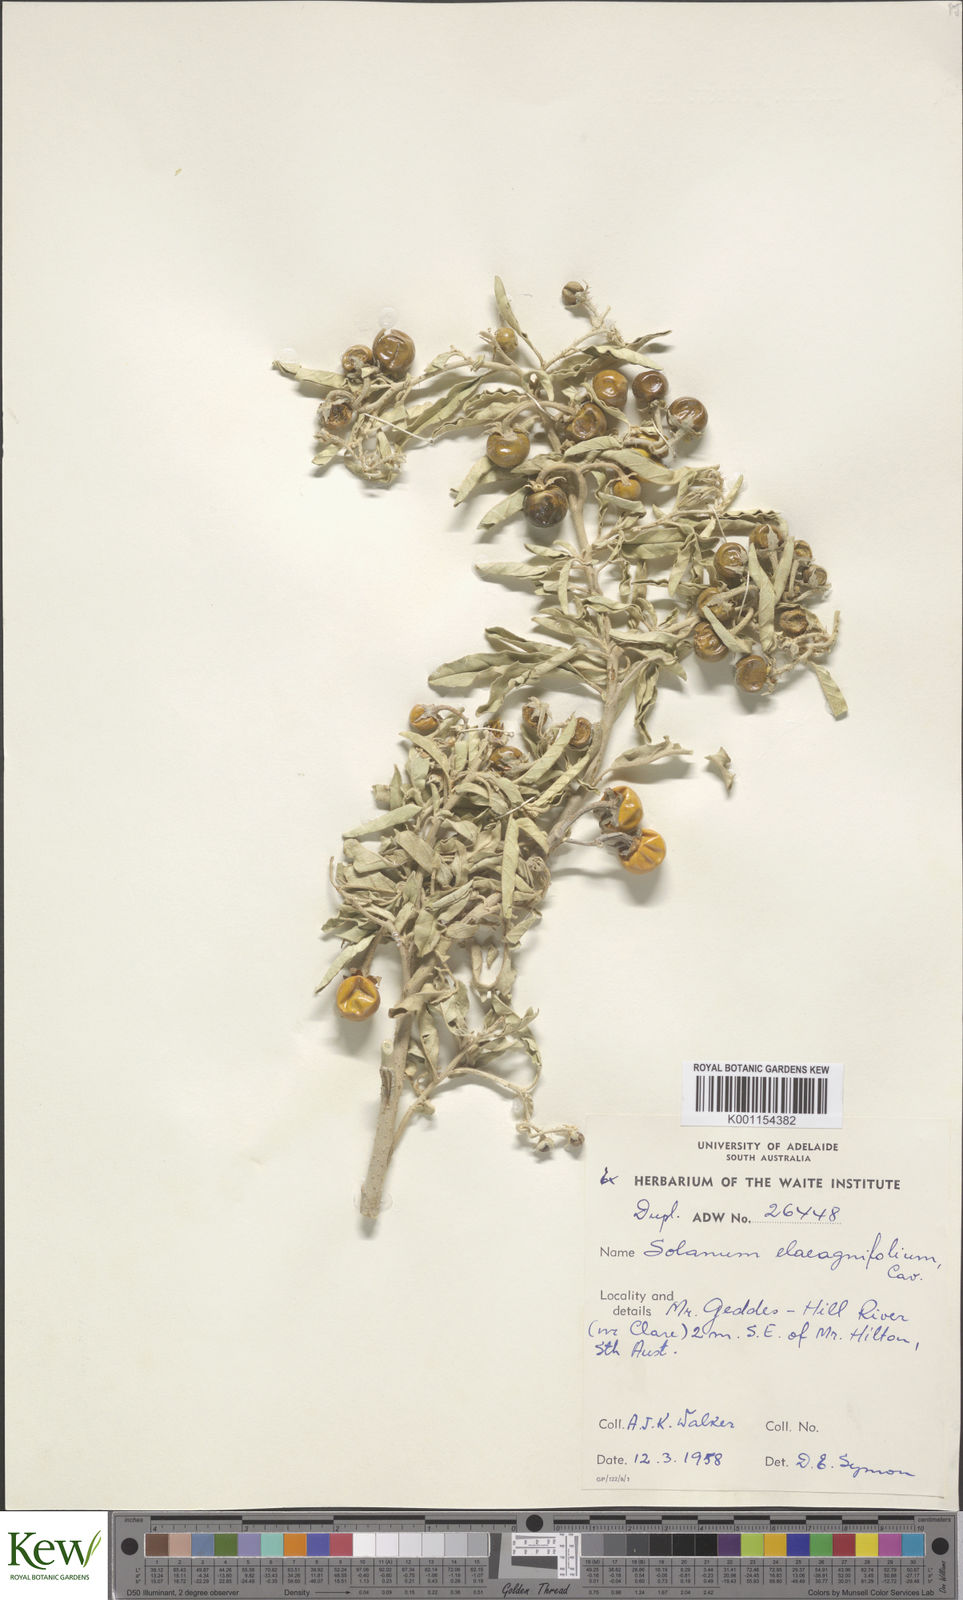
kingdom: Plantae
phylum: Tracheophyta
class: Magnoliopsida
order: Solanales
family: Solanaceae
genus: Solanum
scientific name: Solanum elaeagnifolium
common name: Silverleaf nightshade
